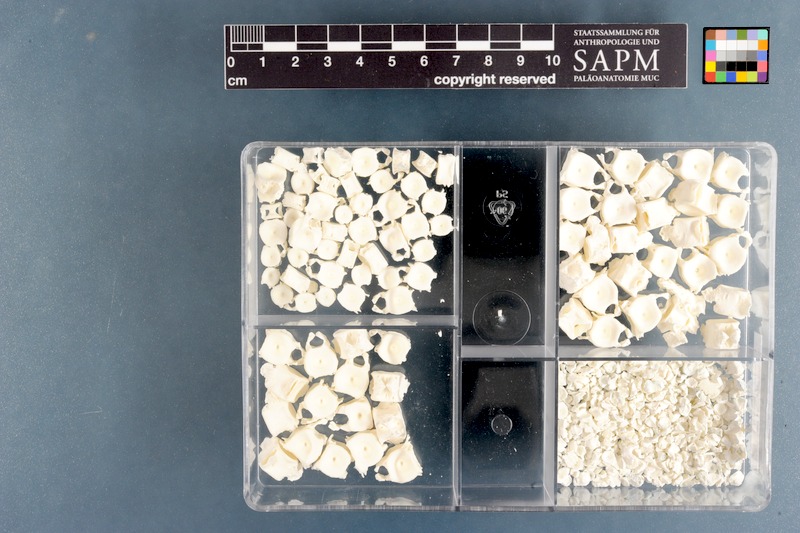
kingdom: Animalia
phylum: Chordata
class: Elasmobranchii
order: Carcharhiniformes
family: Scyliorhinidae
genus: Poroderma
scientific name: Poroderma africanum
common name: Pyjama shark
